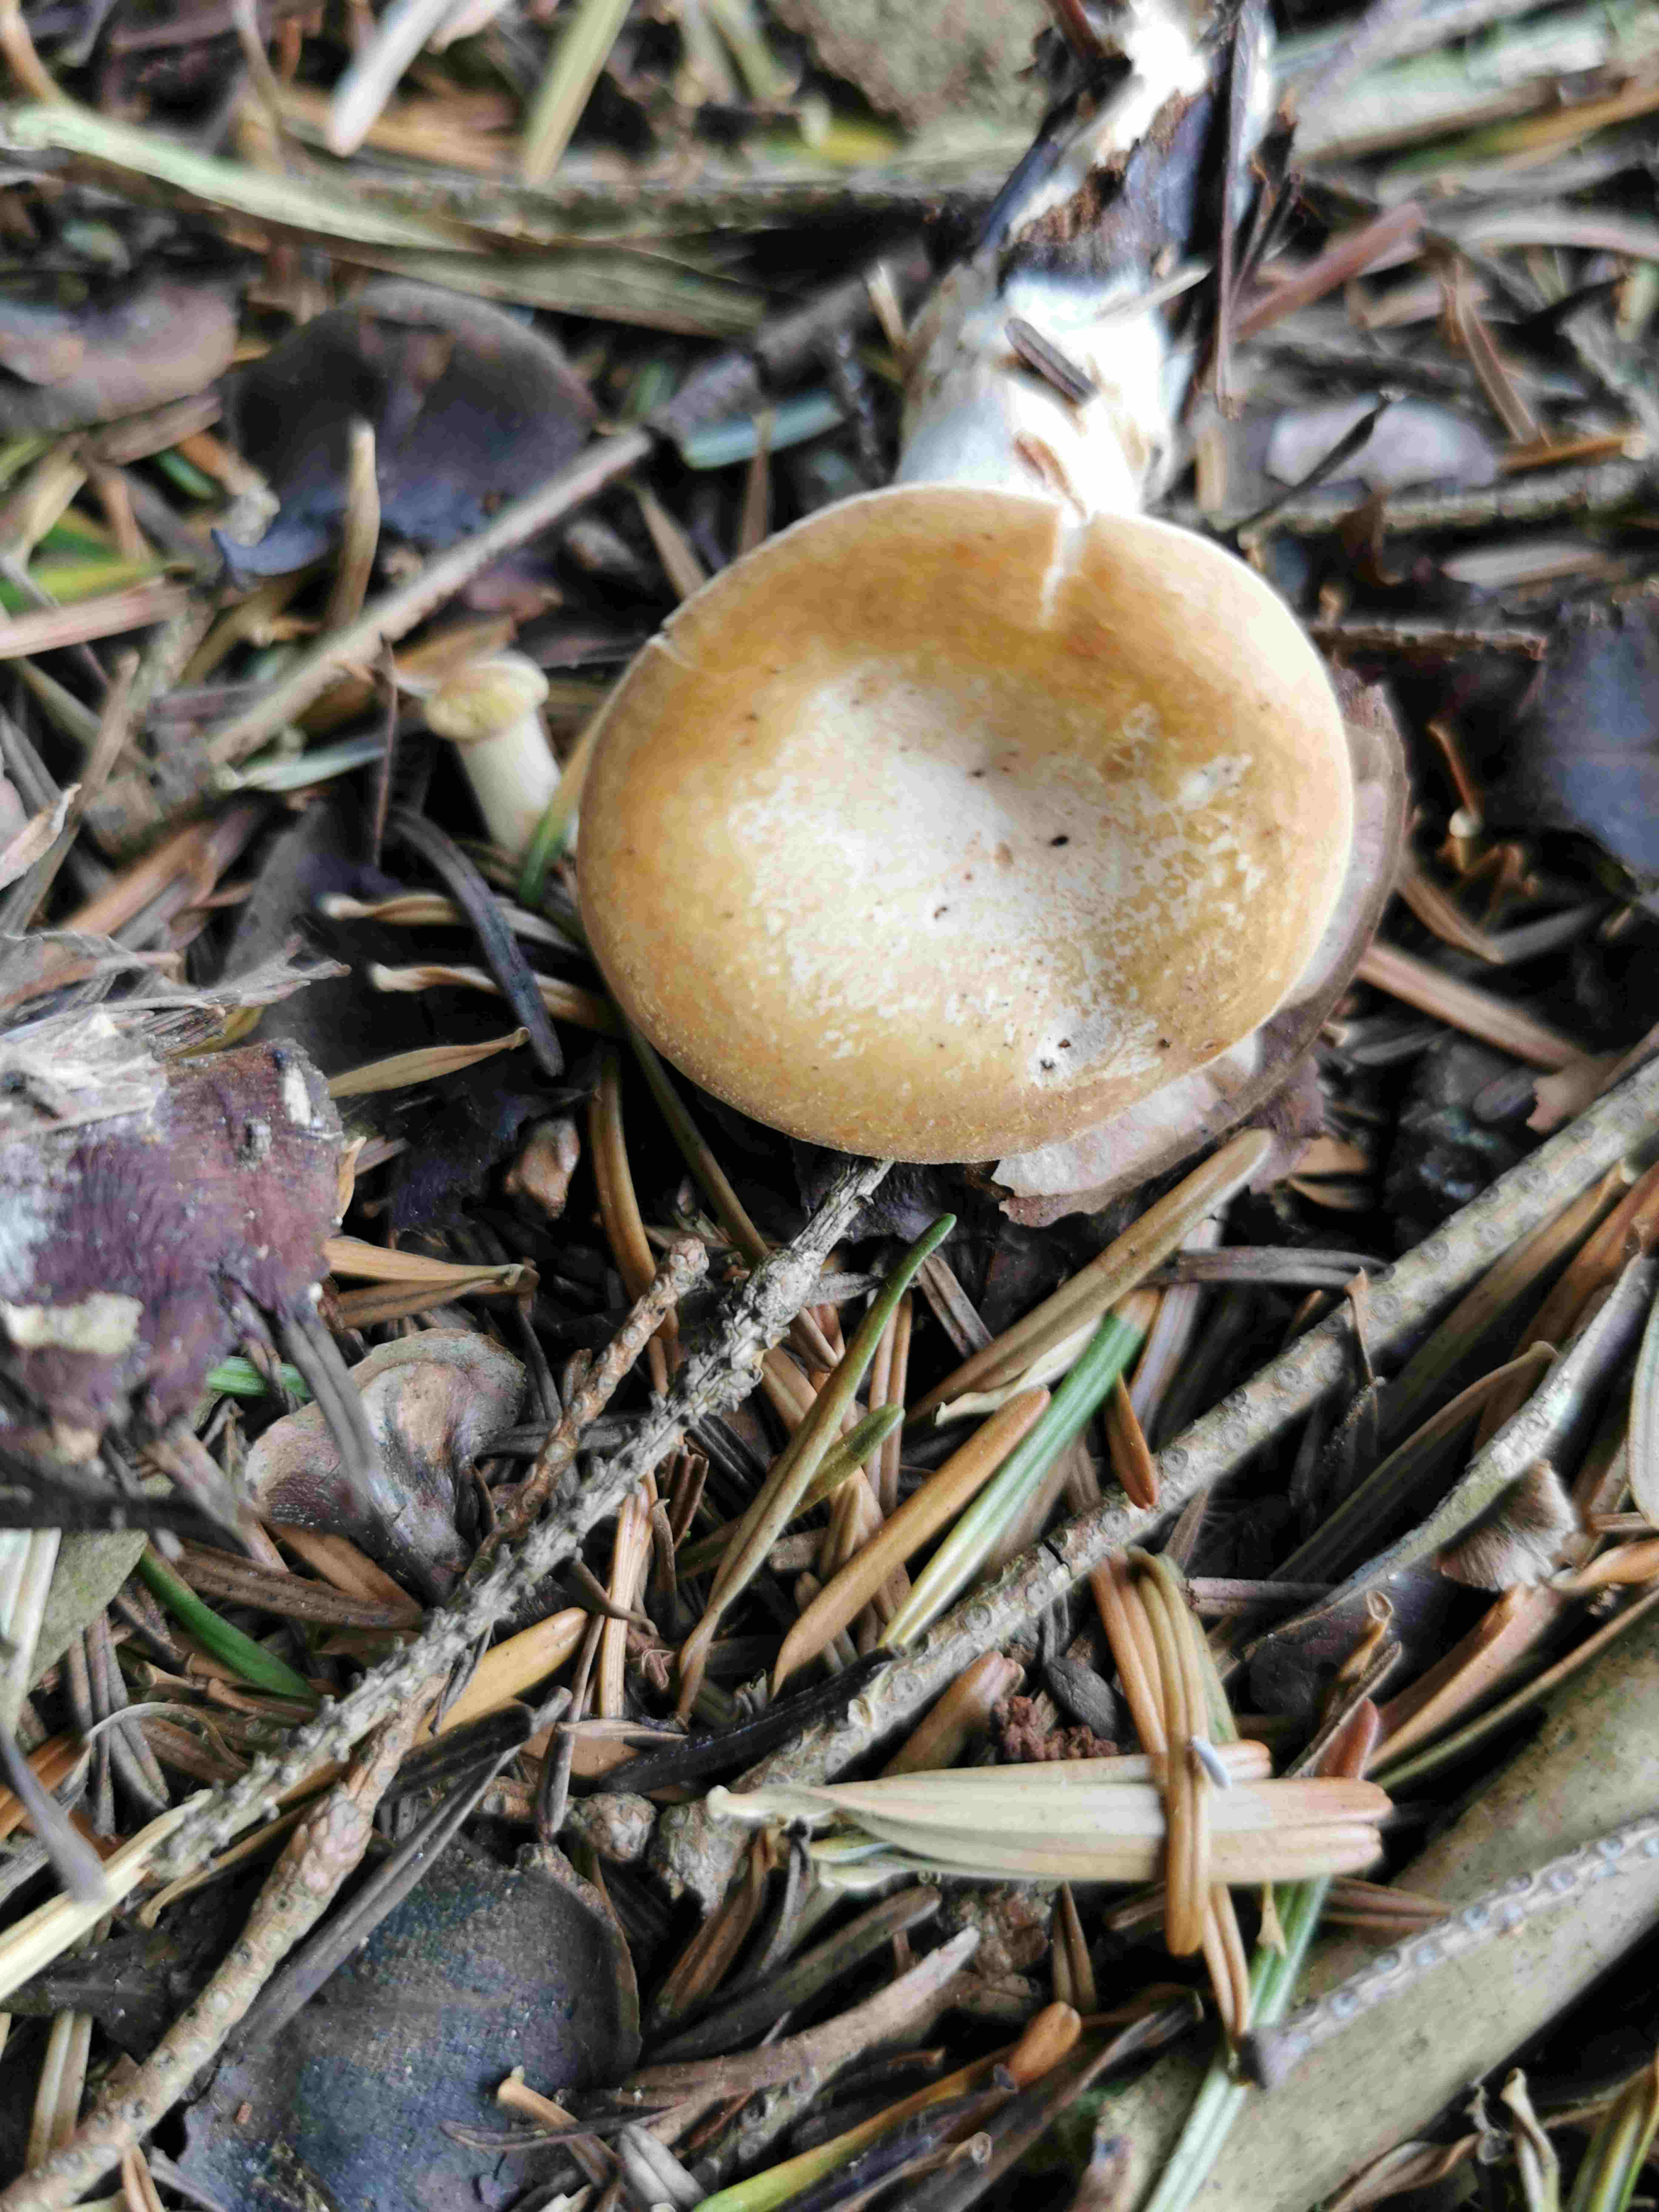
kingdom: Fungi
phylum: Basidiomycota
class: Agaricomycetes
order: Agaricales
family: Tricholomataceae
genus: Paralepista
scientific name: Paralepista gilva
